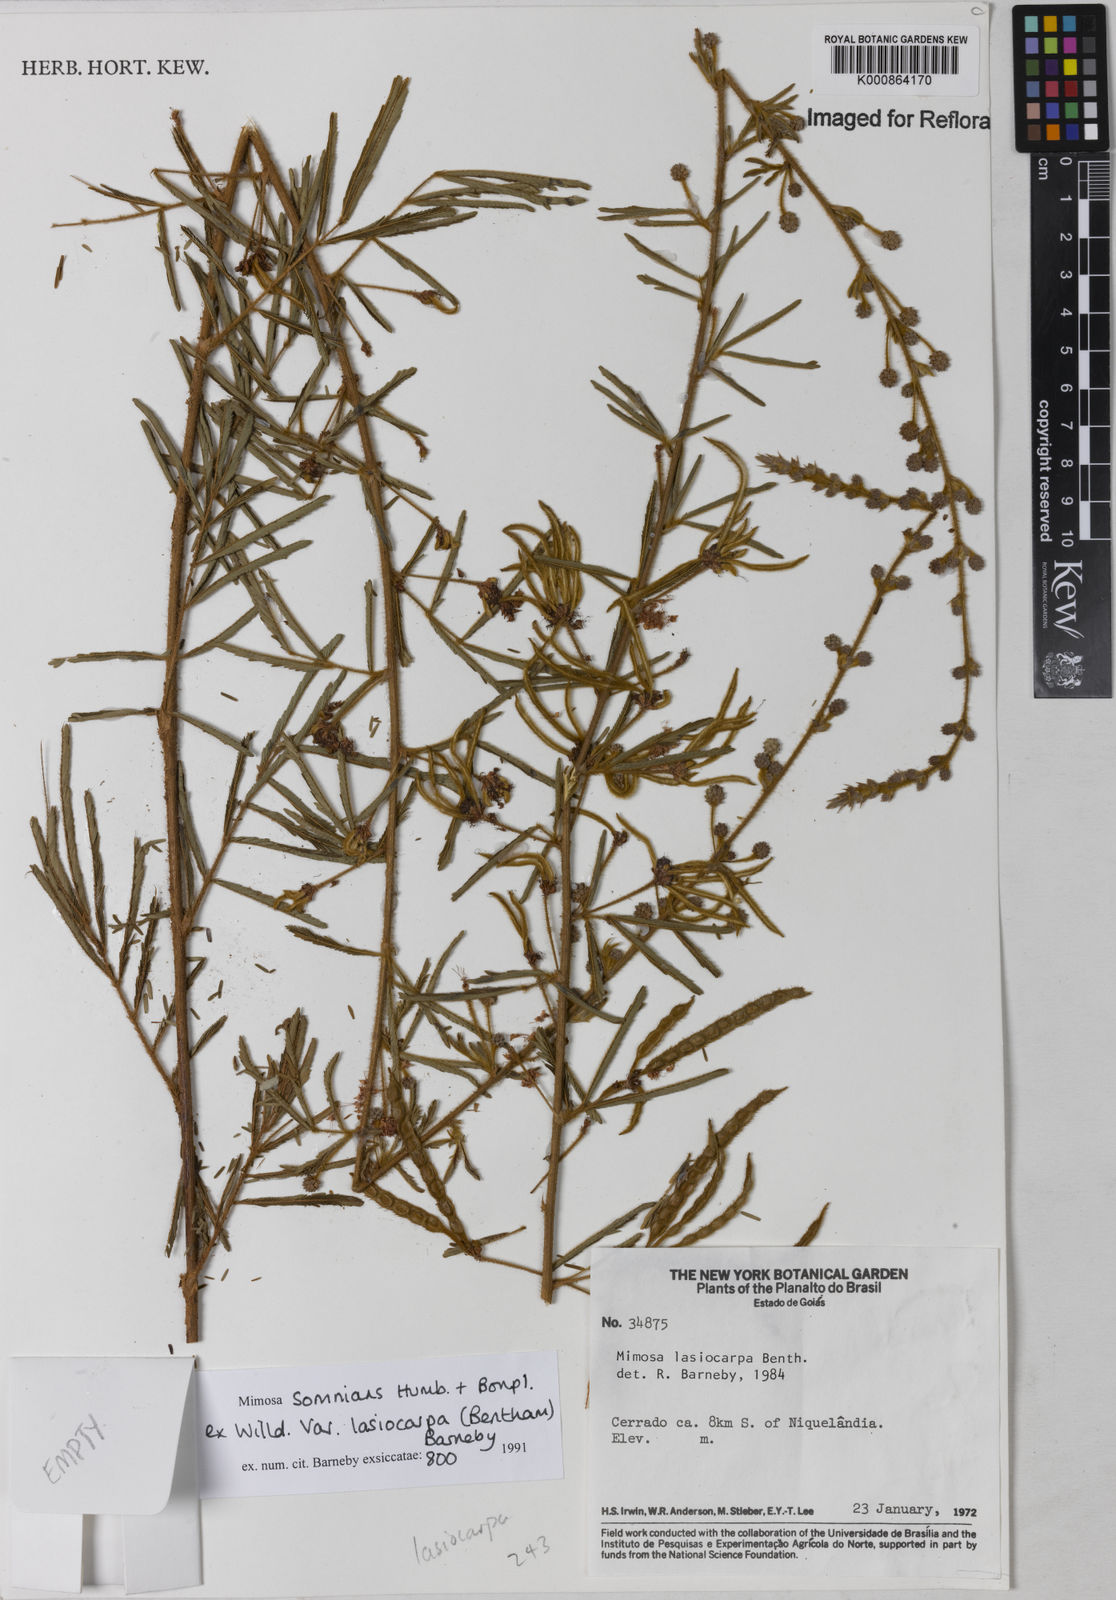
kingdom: Plantae
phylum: Tracheophyta
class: Magnoliopsida
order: Fabales
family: Fabaceae
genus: Mimosa
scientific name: Mimosa somnians
